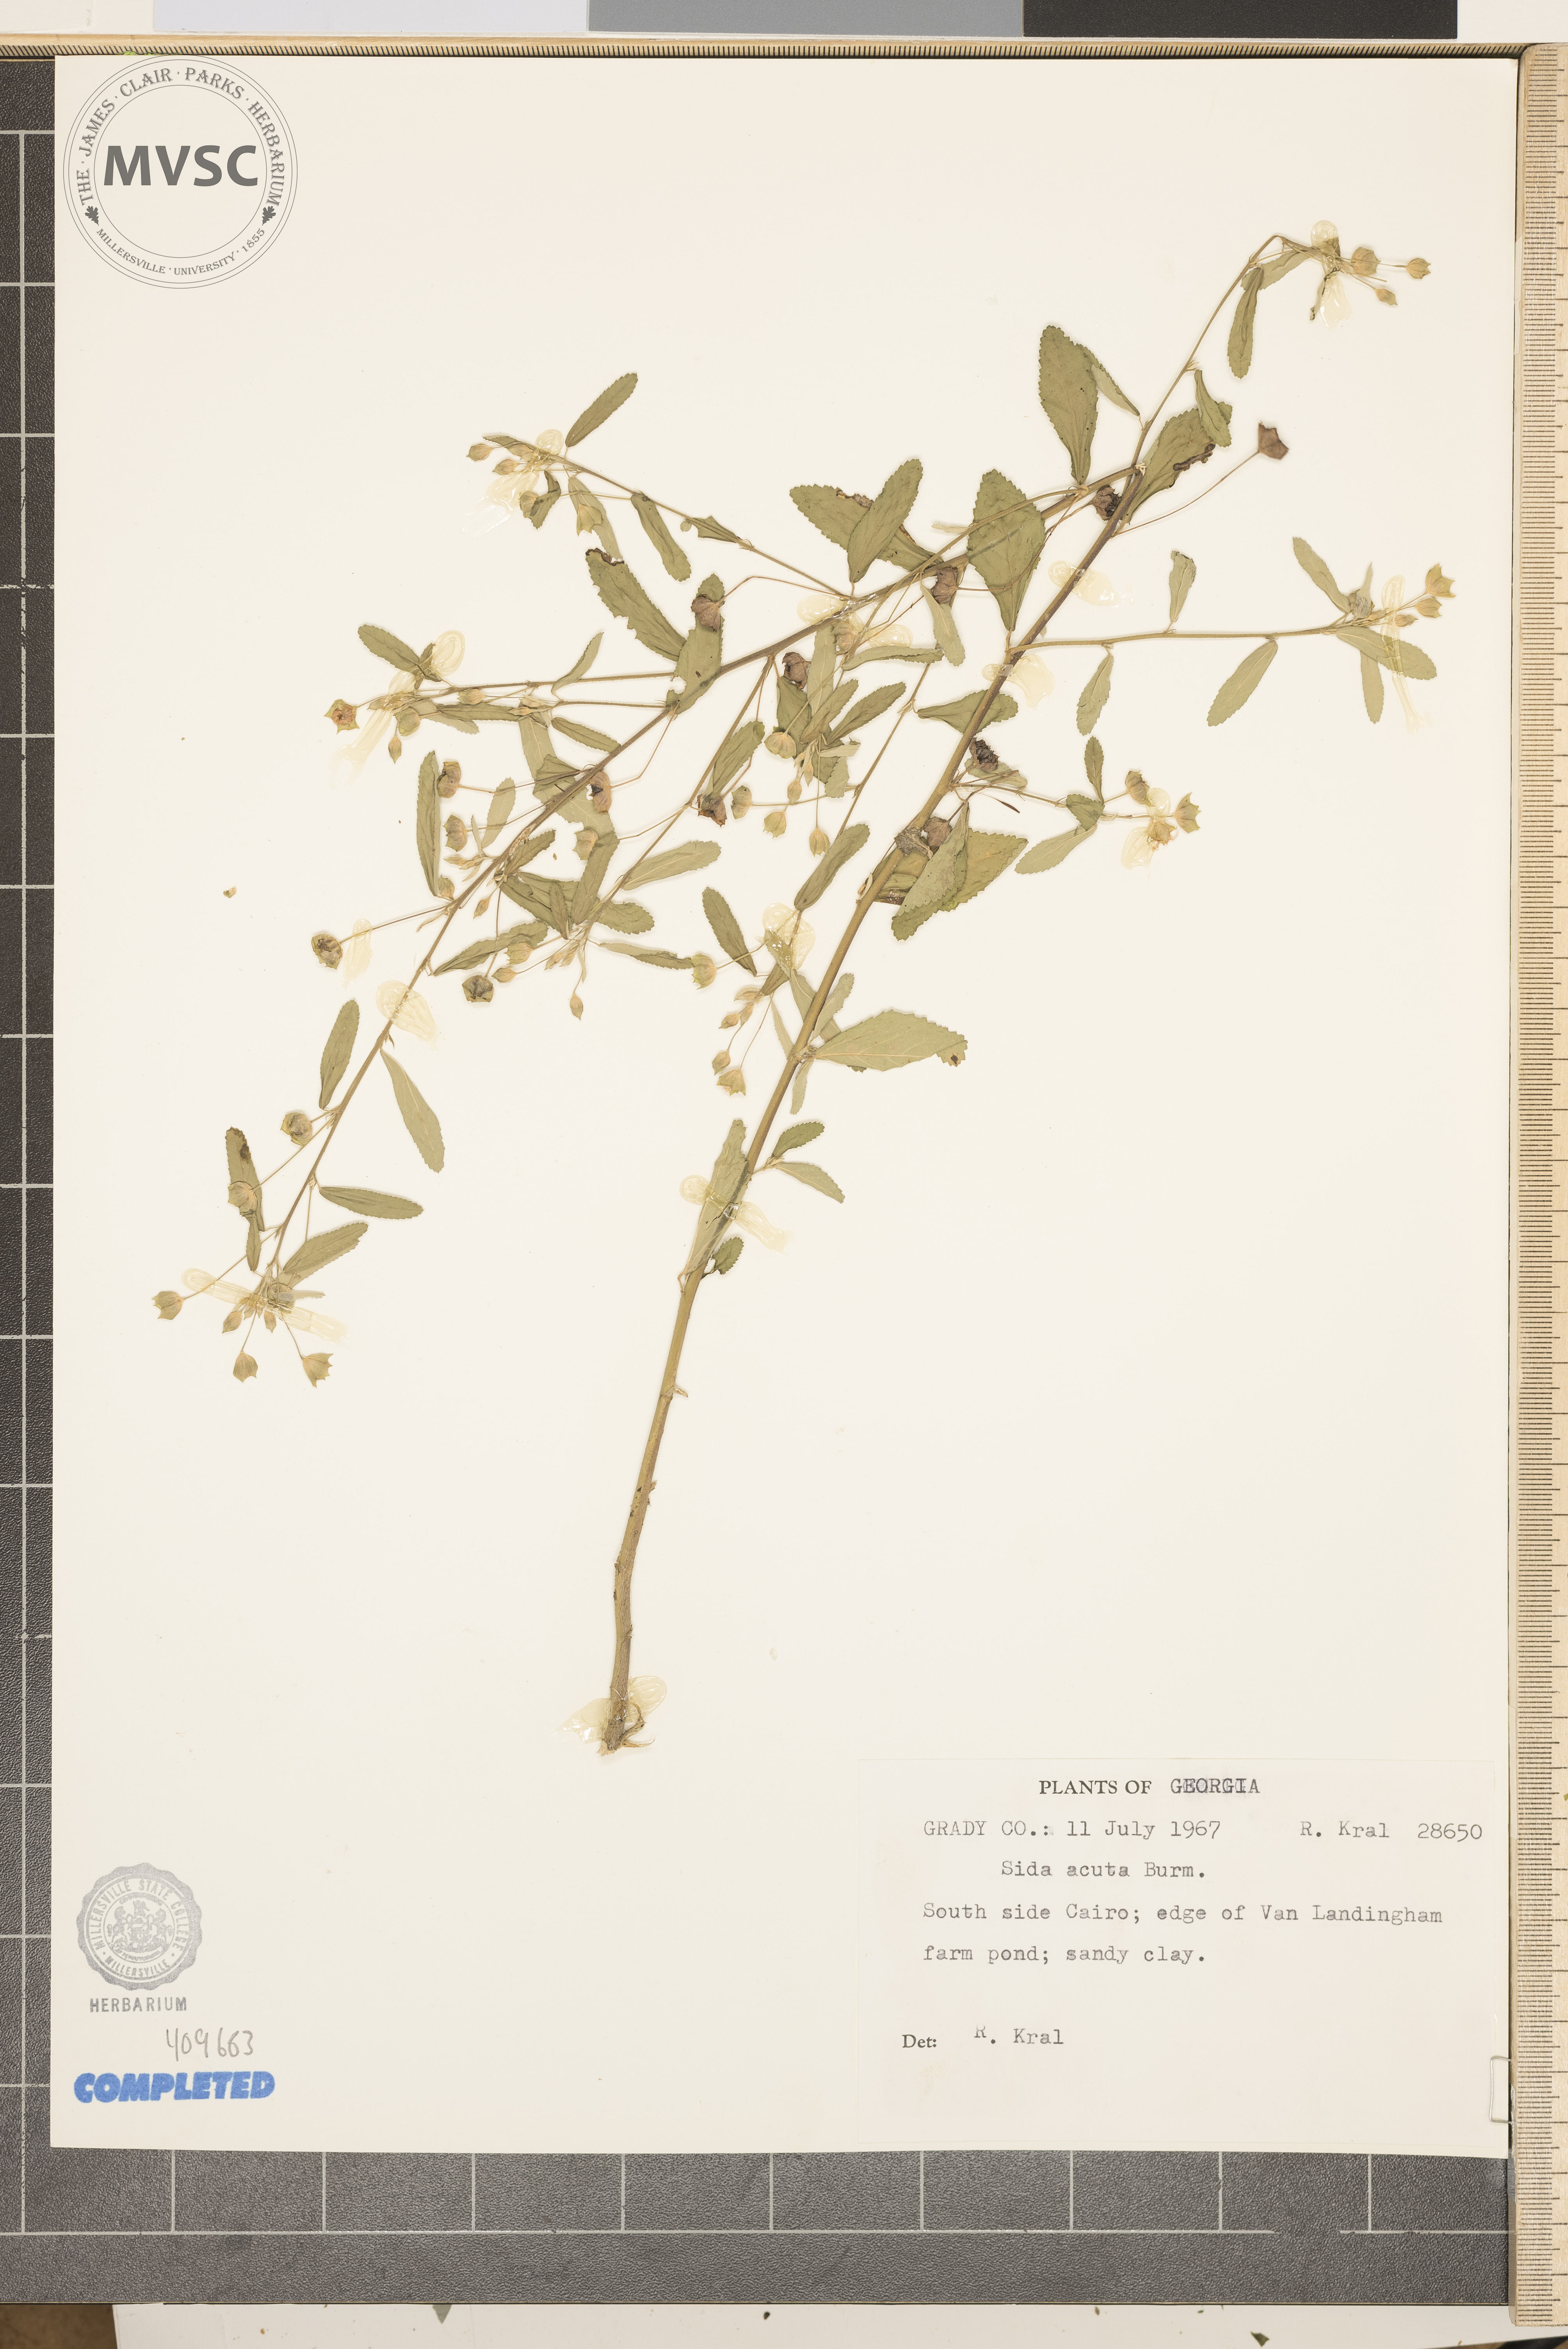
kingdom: Plantae
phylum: Tracheophyta
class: Magnoliopsida
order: Malvales
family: Malvaceae
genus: Sida
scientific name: Sida acuta
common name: Common Wireweed
